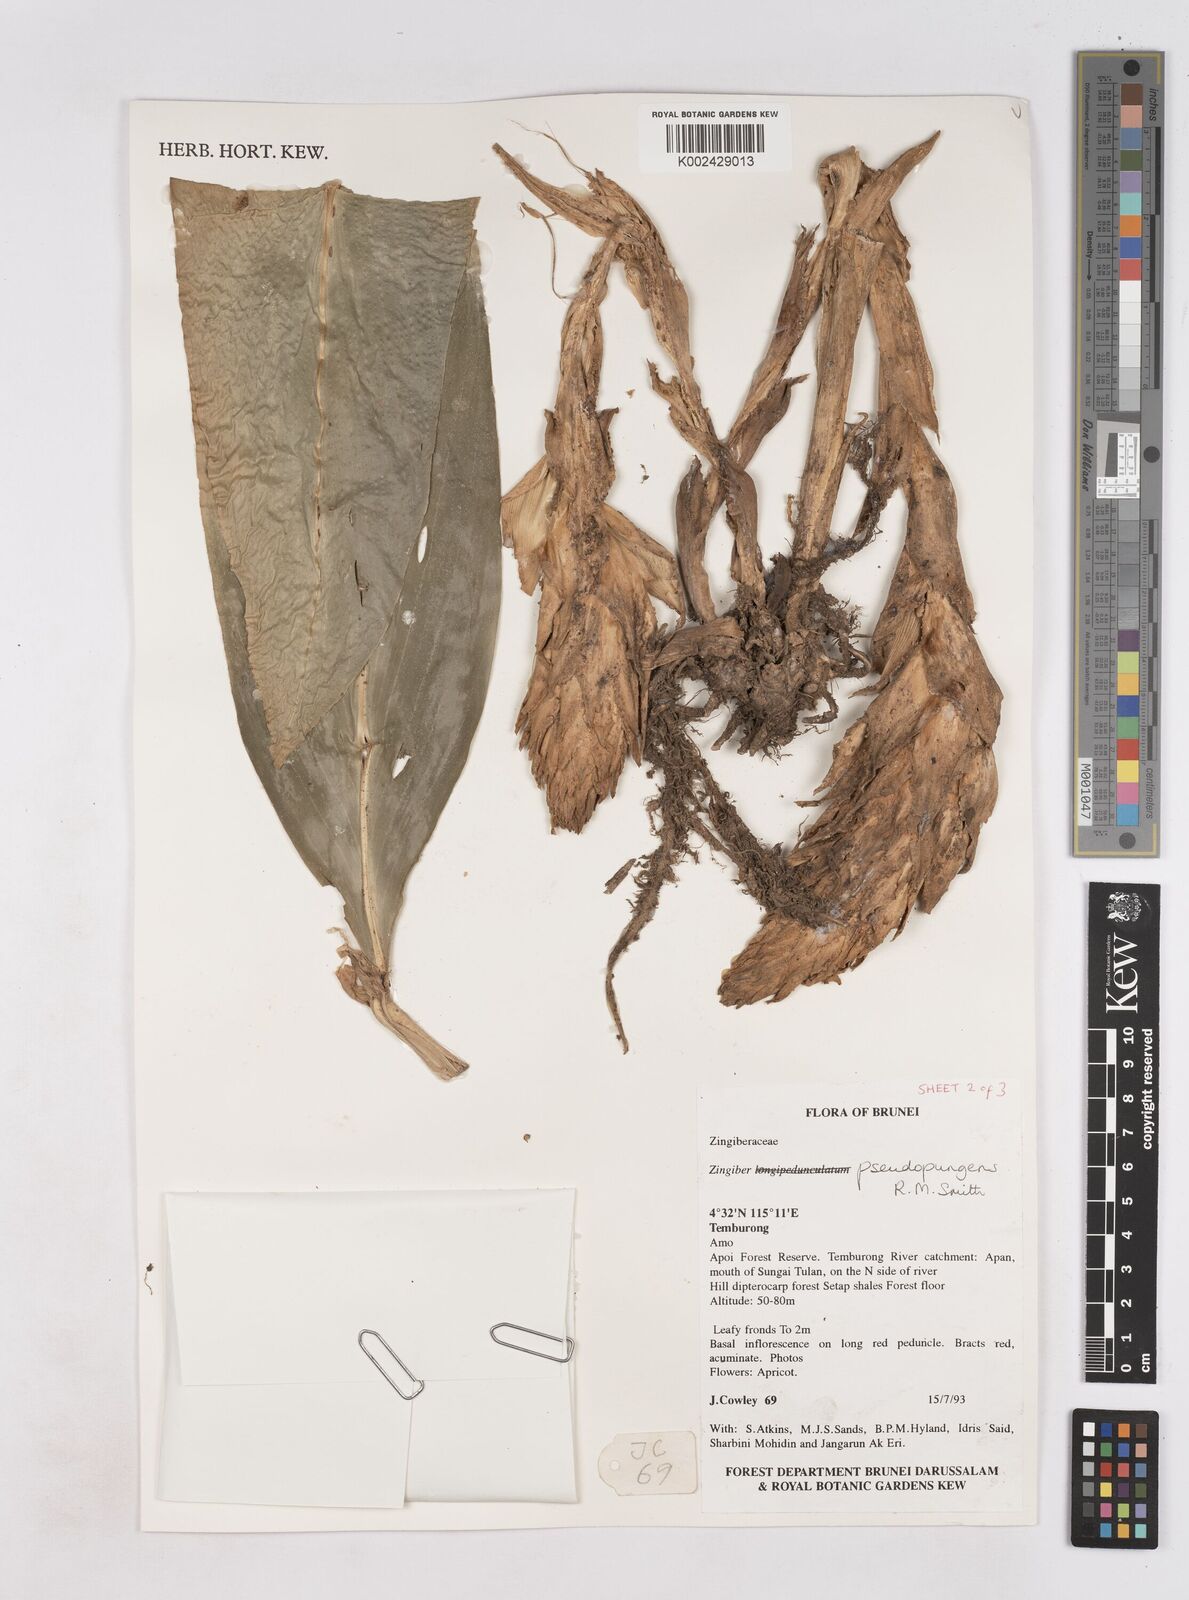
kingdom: Plantae
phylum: Tracheophyta
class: Liliopsida
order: Zingiberales
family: Zingiberaceae
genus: Zingiber
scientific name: Zingiber pseudopungens
